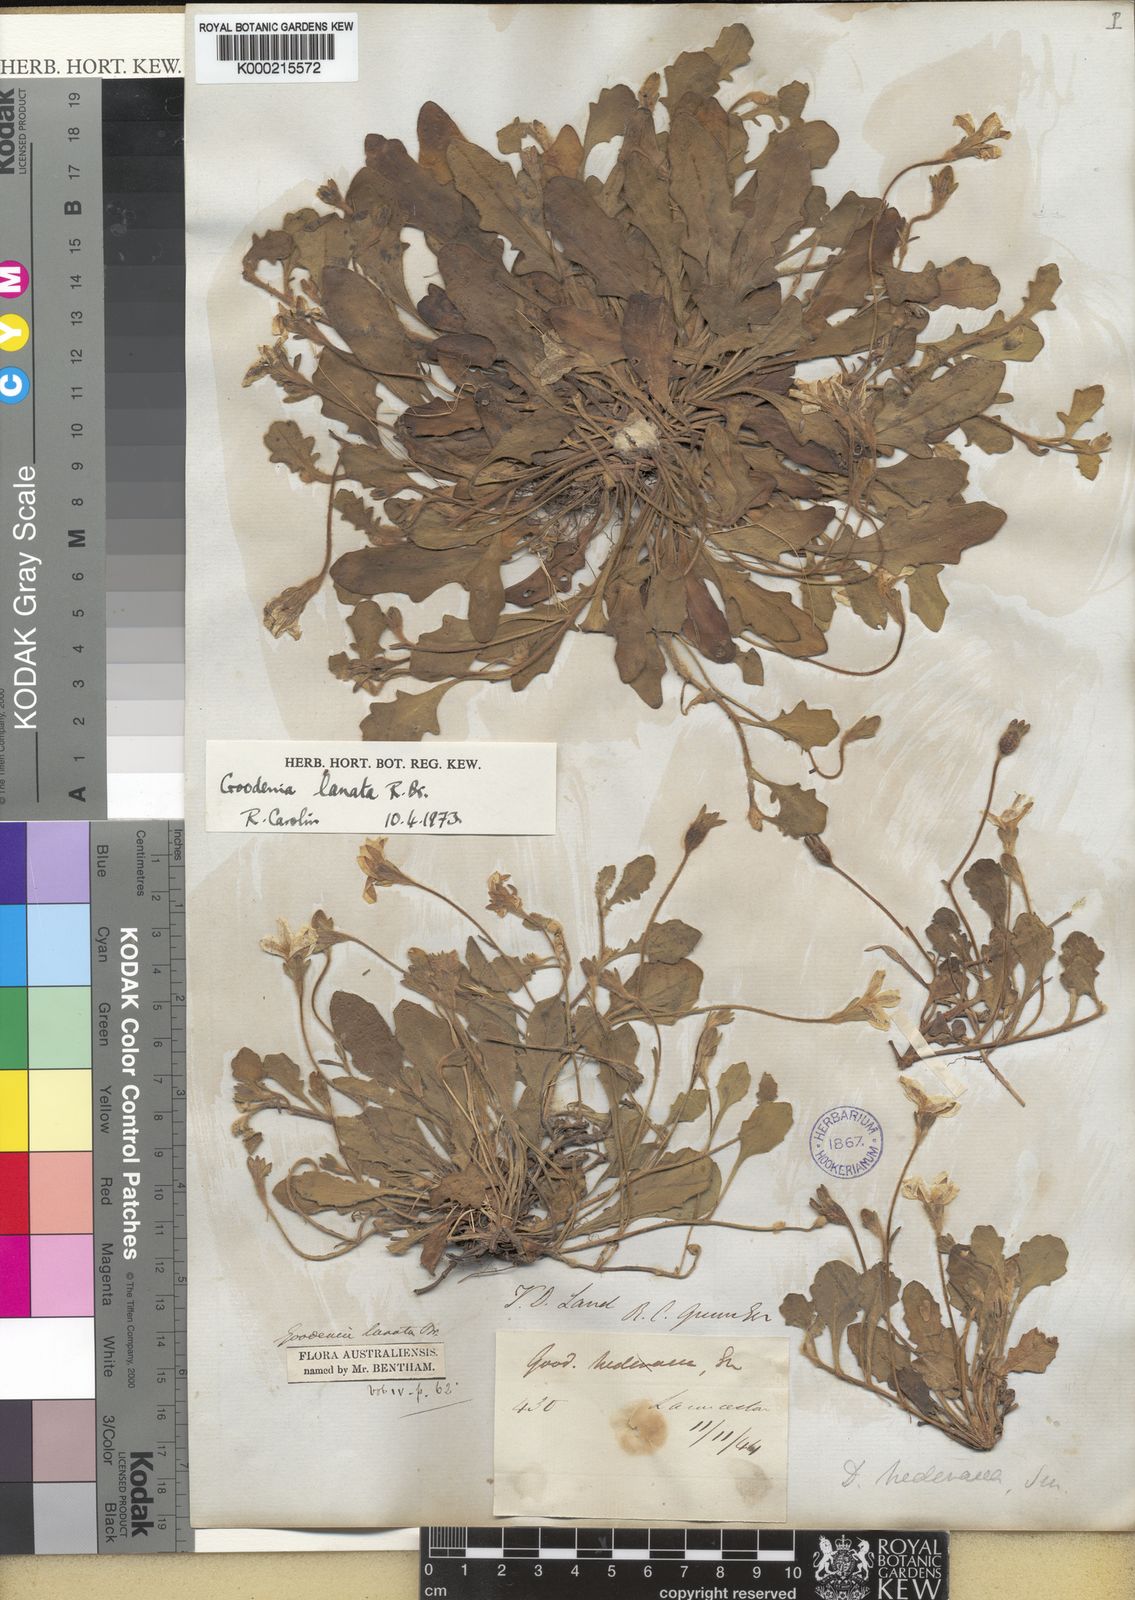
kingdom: Plantae
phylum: Tracheophyta
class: Magnoliopsida
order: Asterales
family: Goodeniaceae
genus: Goodenia
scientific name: Goodenia lanata
